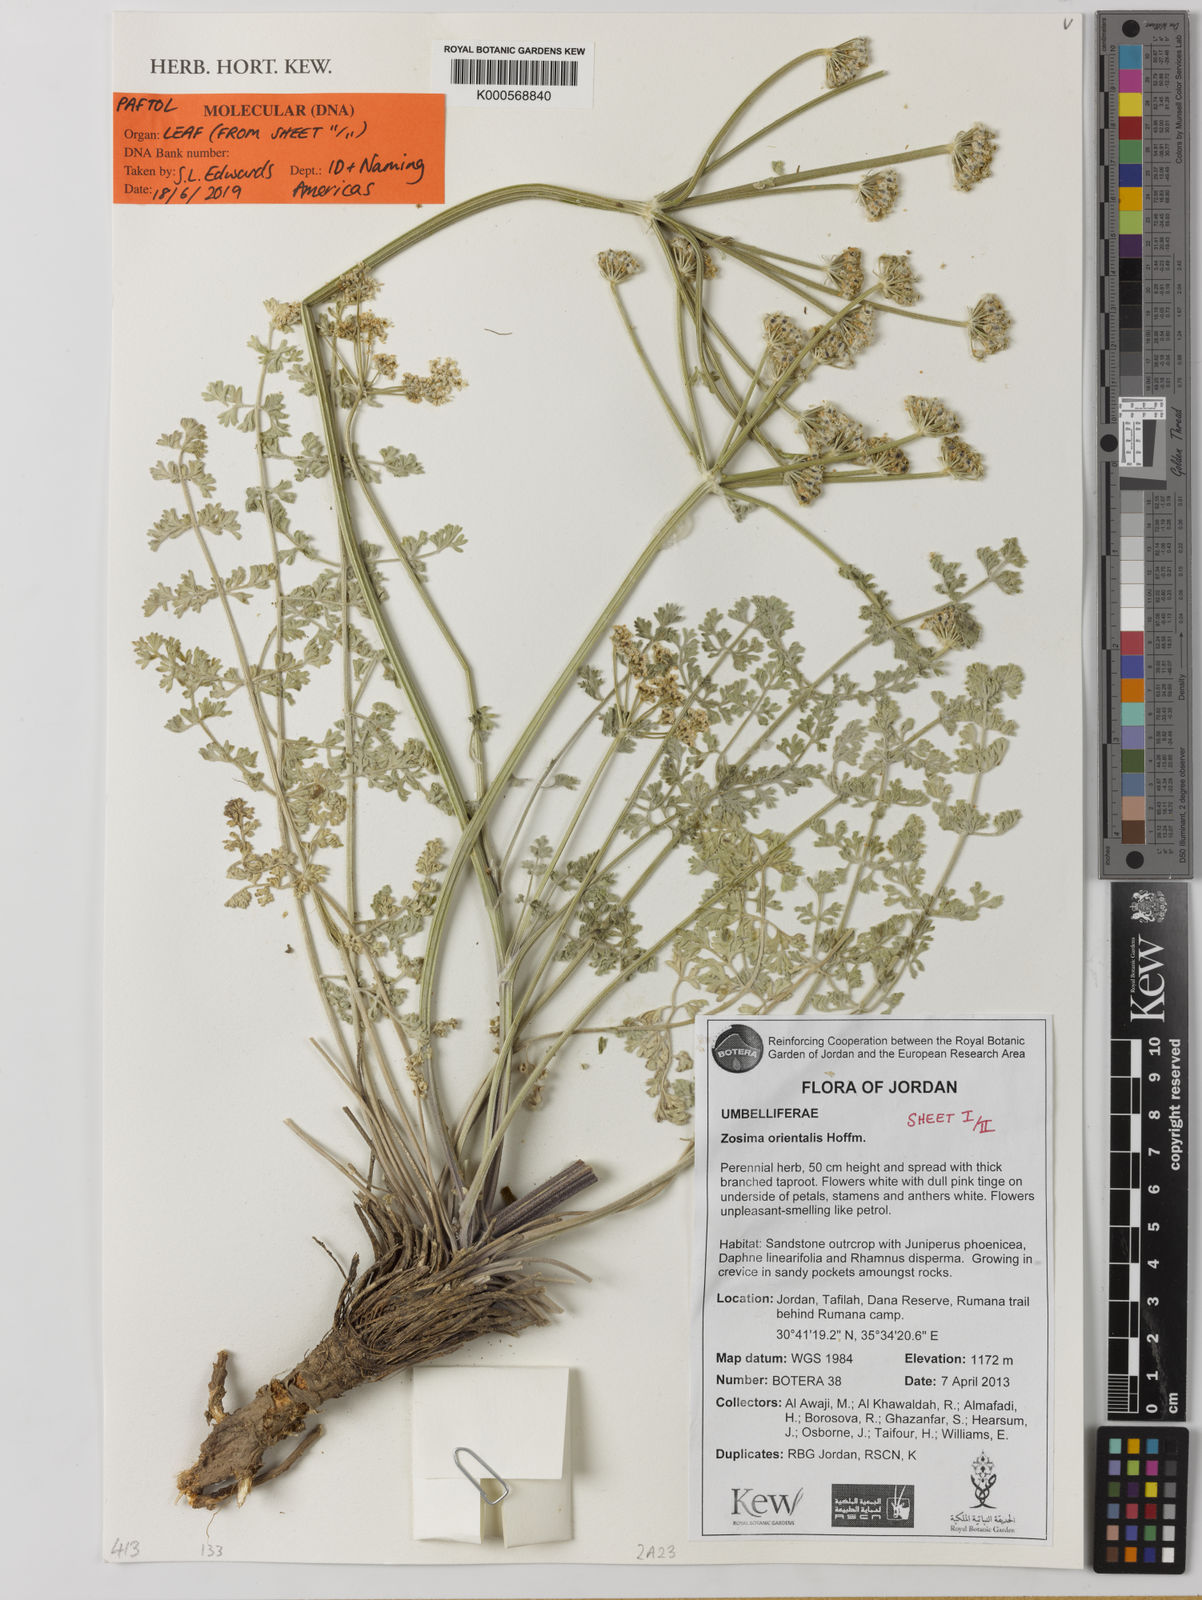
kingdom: Plantae
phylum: Tracheophyta
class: Magnoliopsida
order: Apiales
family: Apiaceae
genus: Zosima
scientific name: Zosima absinthiifolia
